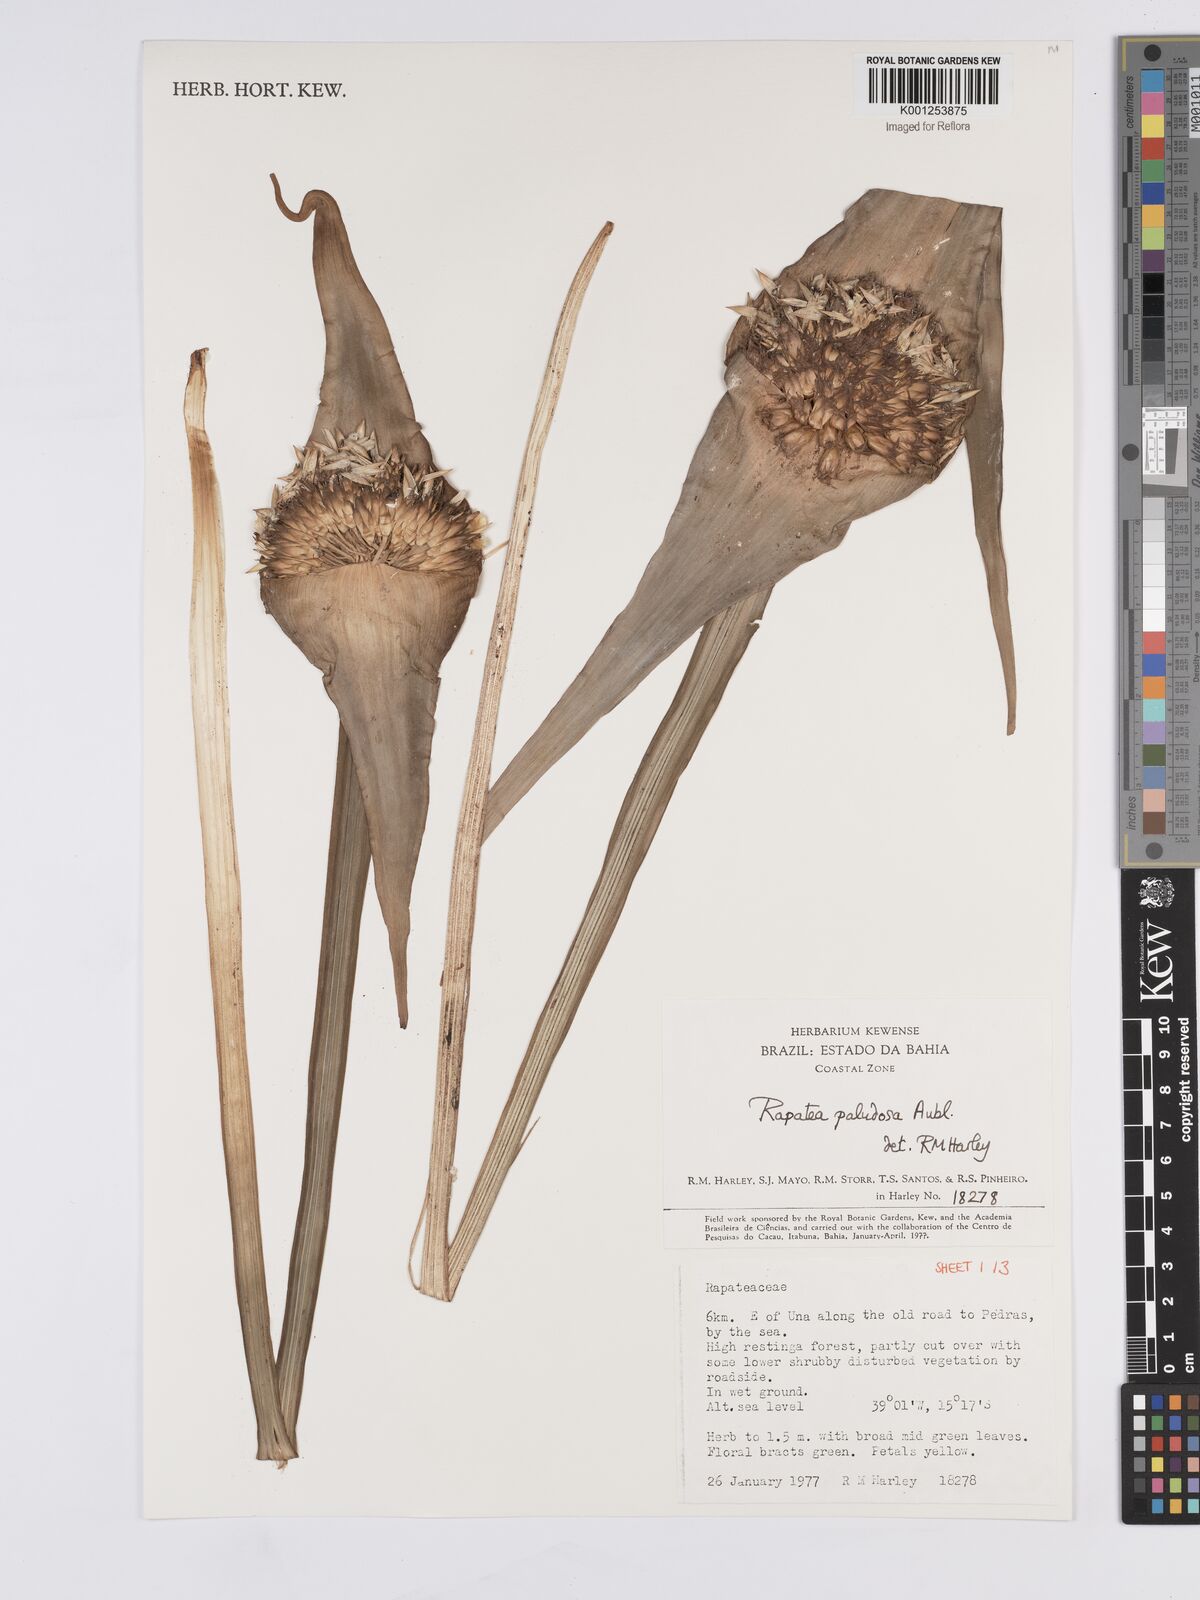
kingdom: Plantae
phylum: Tracheophyta
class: Liliopsida
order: Poales
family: Rapateaceae
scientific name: Rapateaceae
